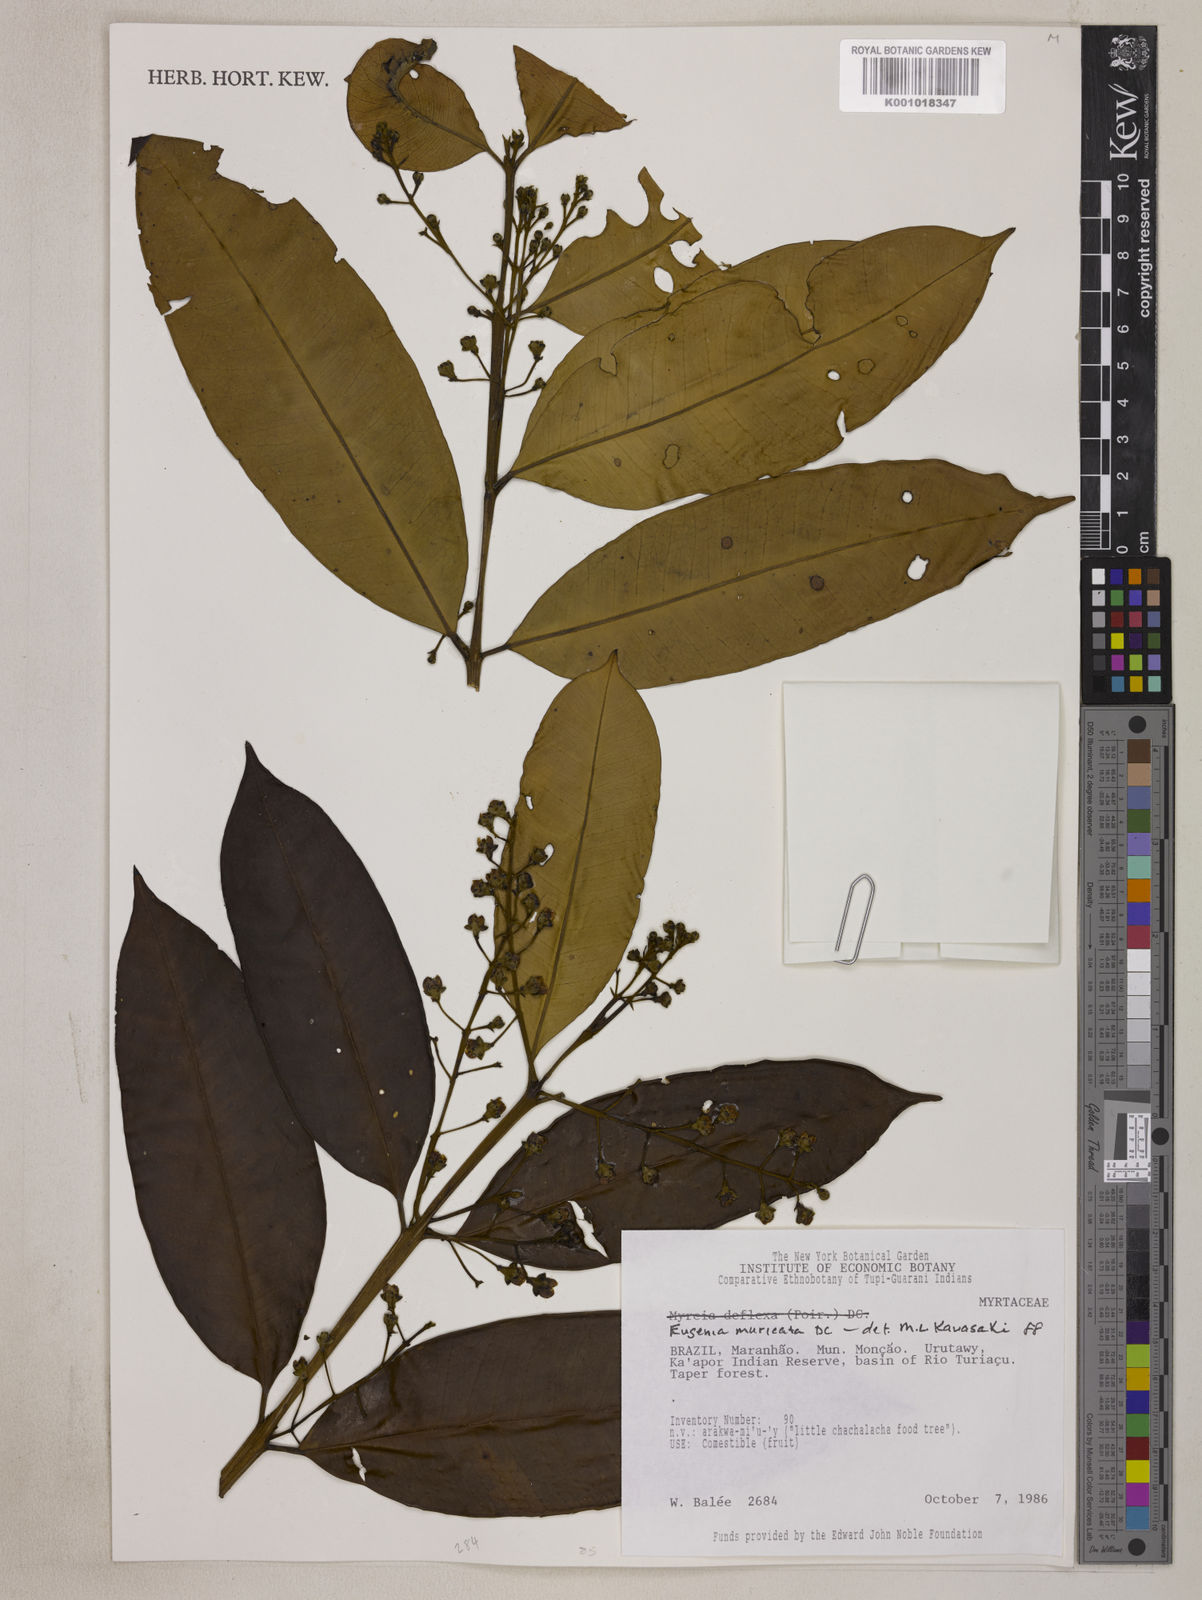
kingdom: Plantae
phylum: Tracheophyta
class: Magnoliopsida
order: Myrtales
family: Myrtaceae
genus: Eugenia
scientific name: Eugenia muricata
